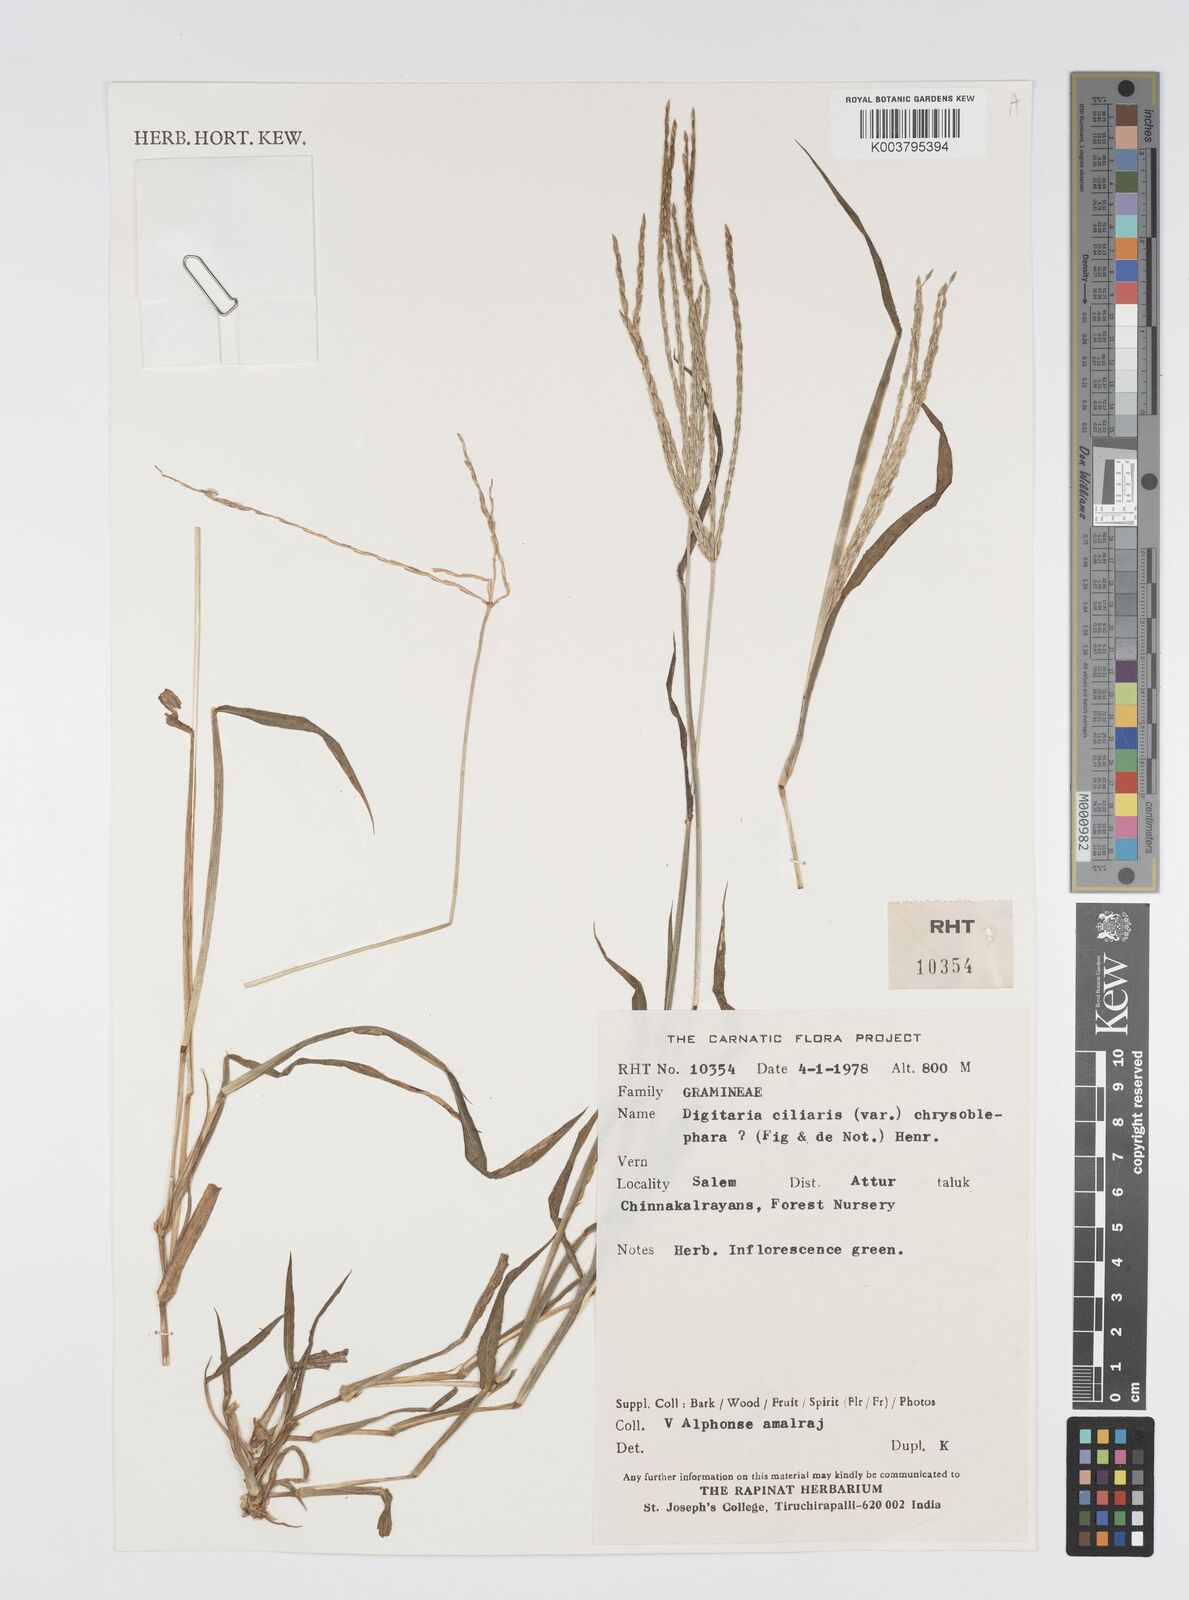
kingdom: Plantae
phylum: Tracheophyta
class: Liliopsida
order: Poales
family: Poaceae
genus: Digitaria
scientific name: Digitaria ciliaris
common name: Tropical finger-grass
